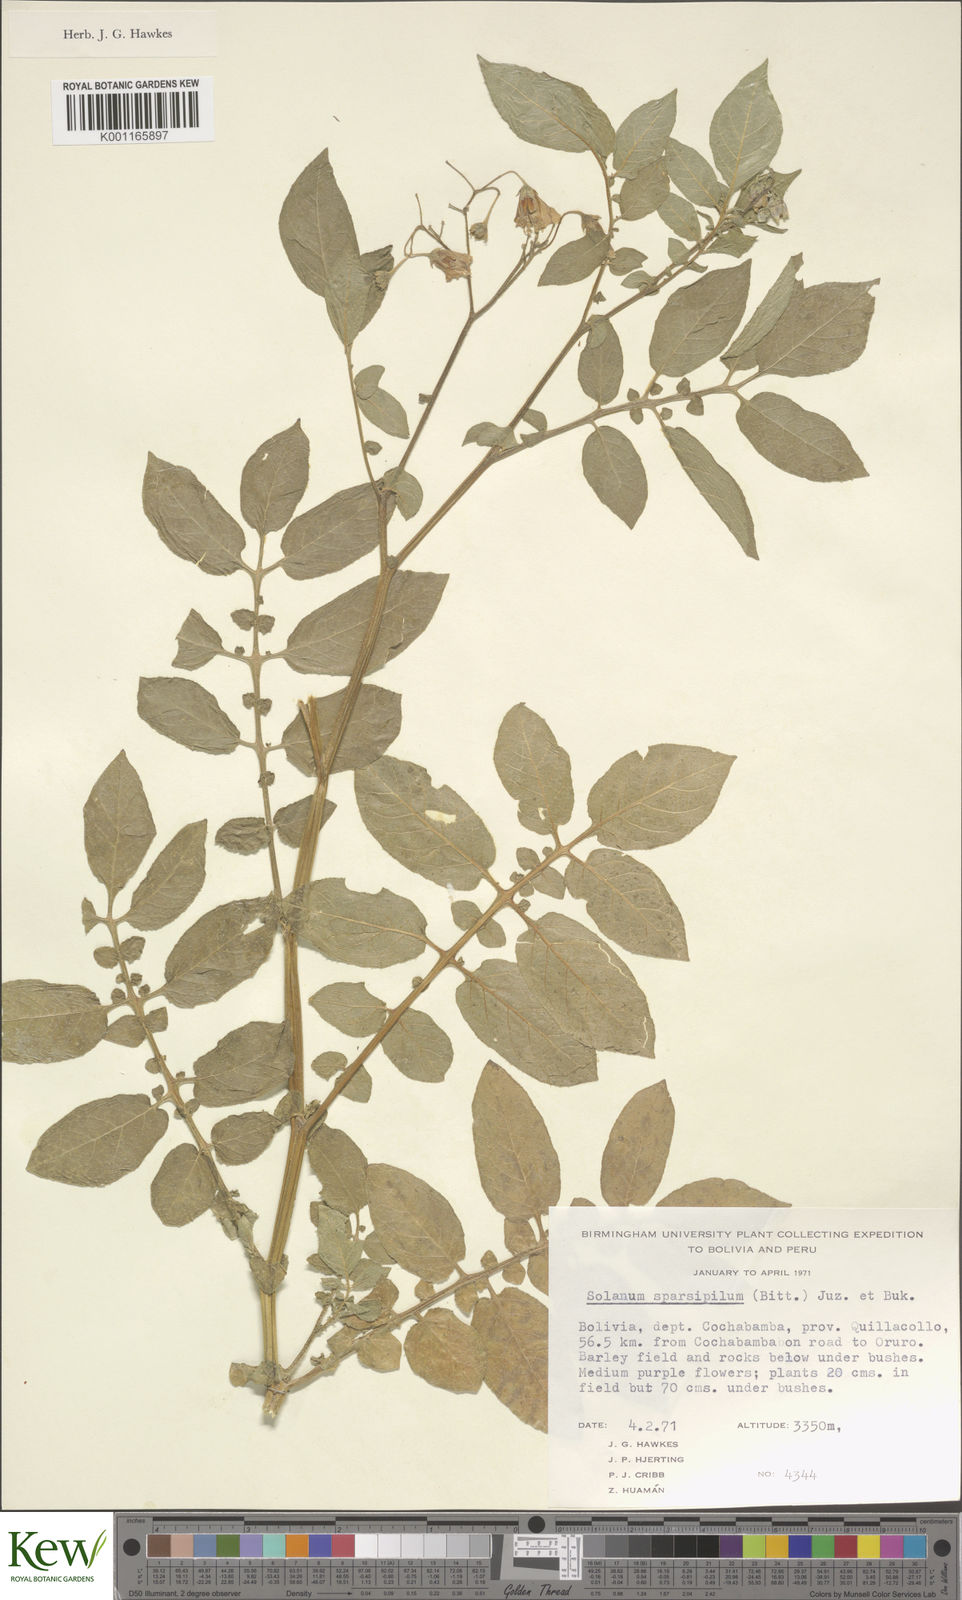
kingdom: Plantae
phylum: Tracheophyta
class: Magnoliopsida
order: Solanales
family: Solanaceae
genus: Solanum
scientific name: Solanum brevicaule
